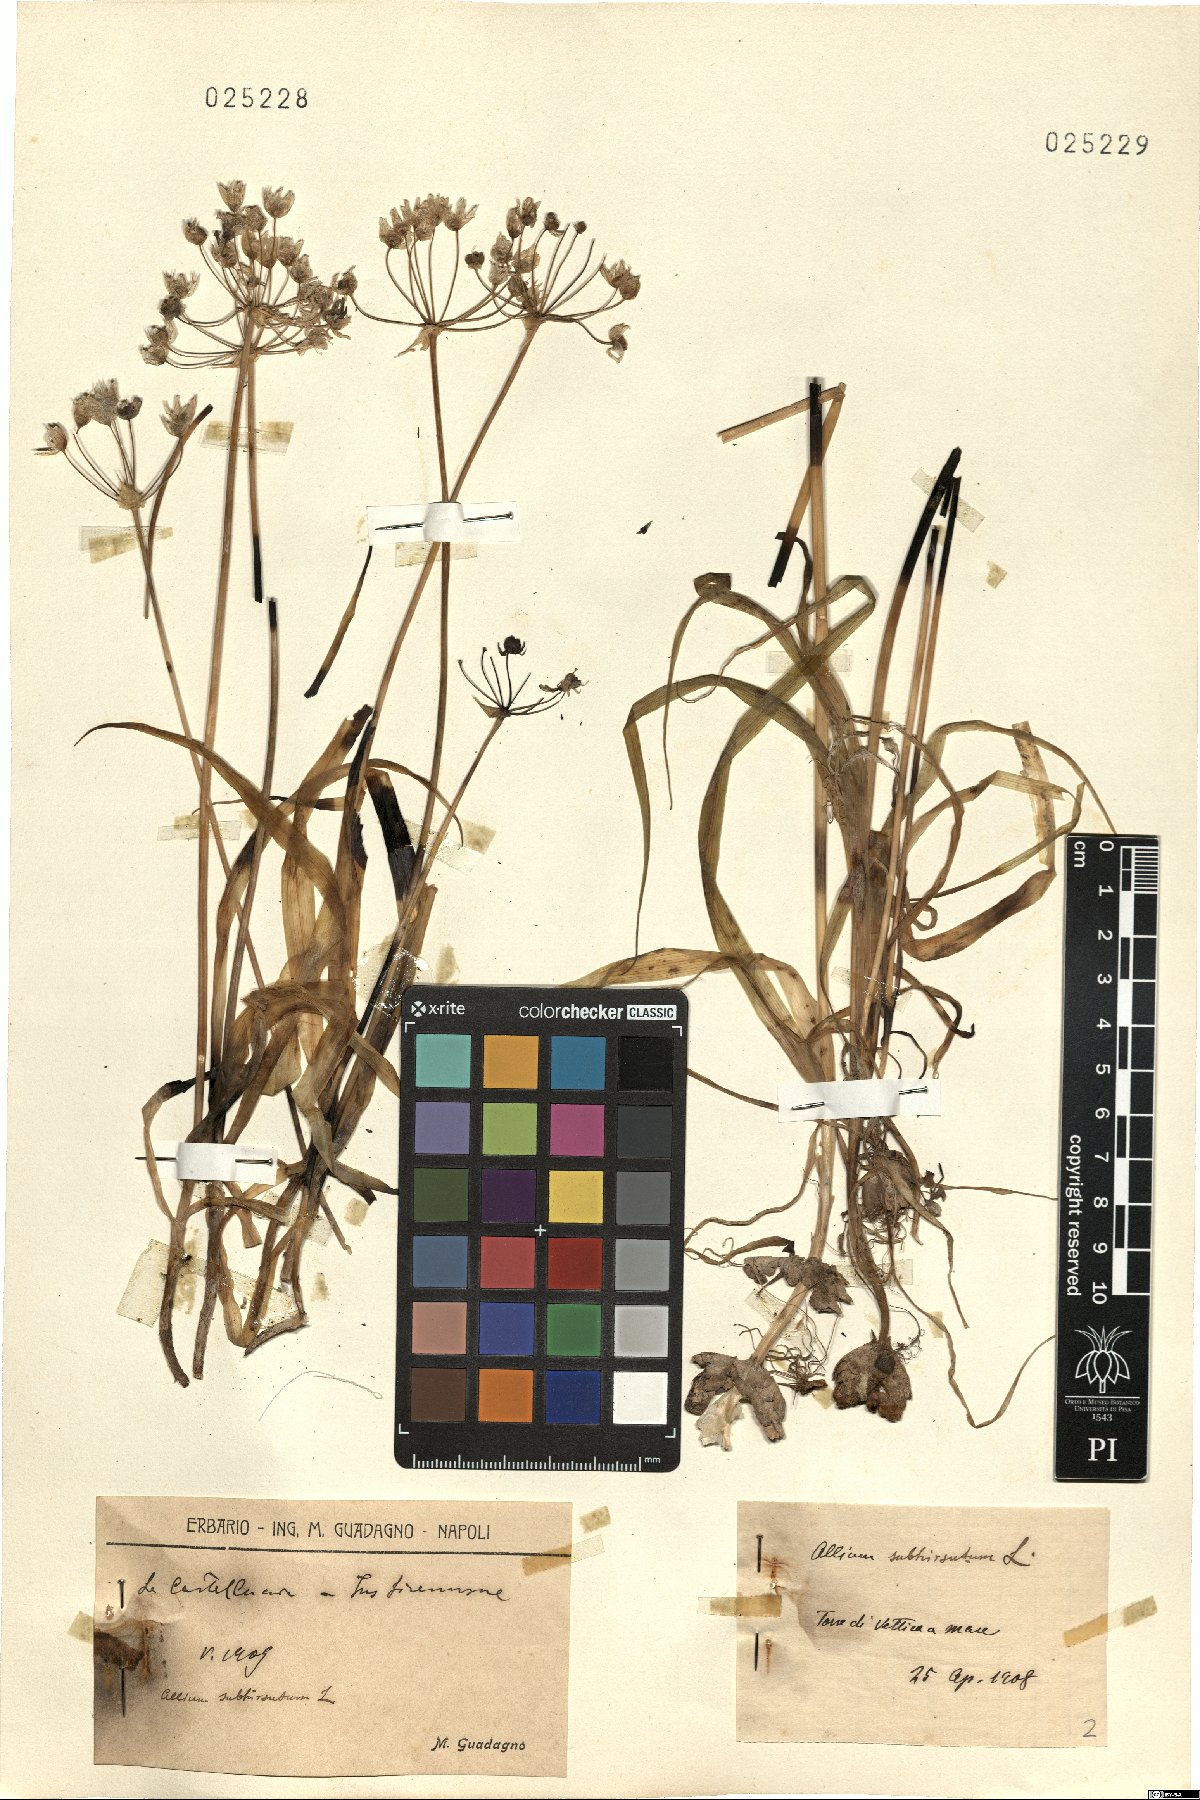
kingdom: Plantae
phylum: Tracheophyta
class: Liliopsida
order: Asparagales
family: Amaryllidaceae
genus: Allium
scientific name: Allium subhirsutum
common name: Hairy garlic
